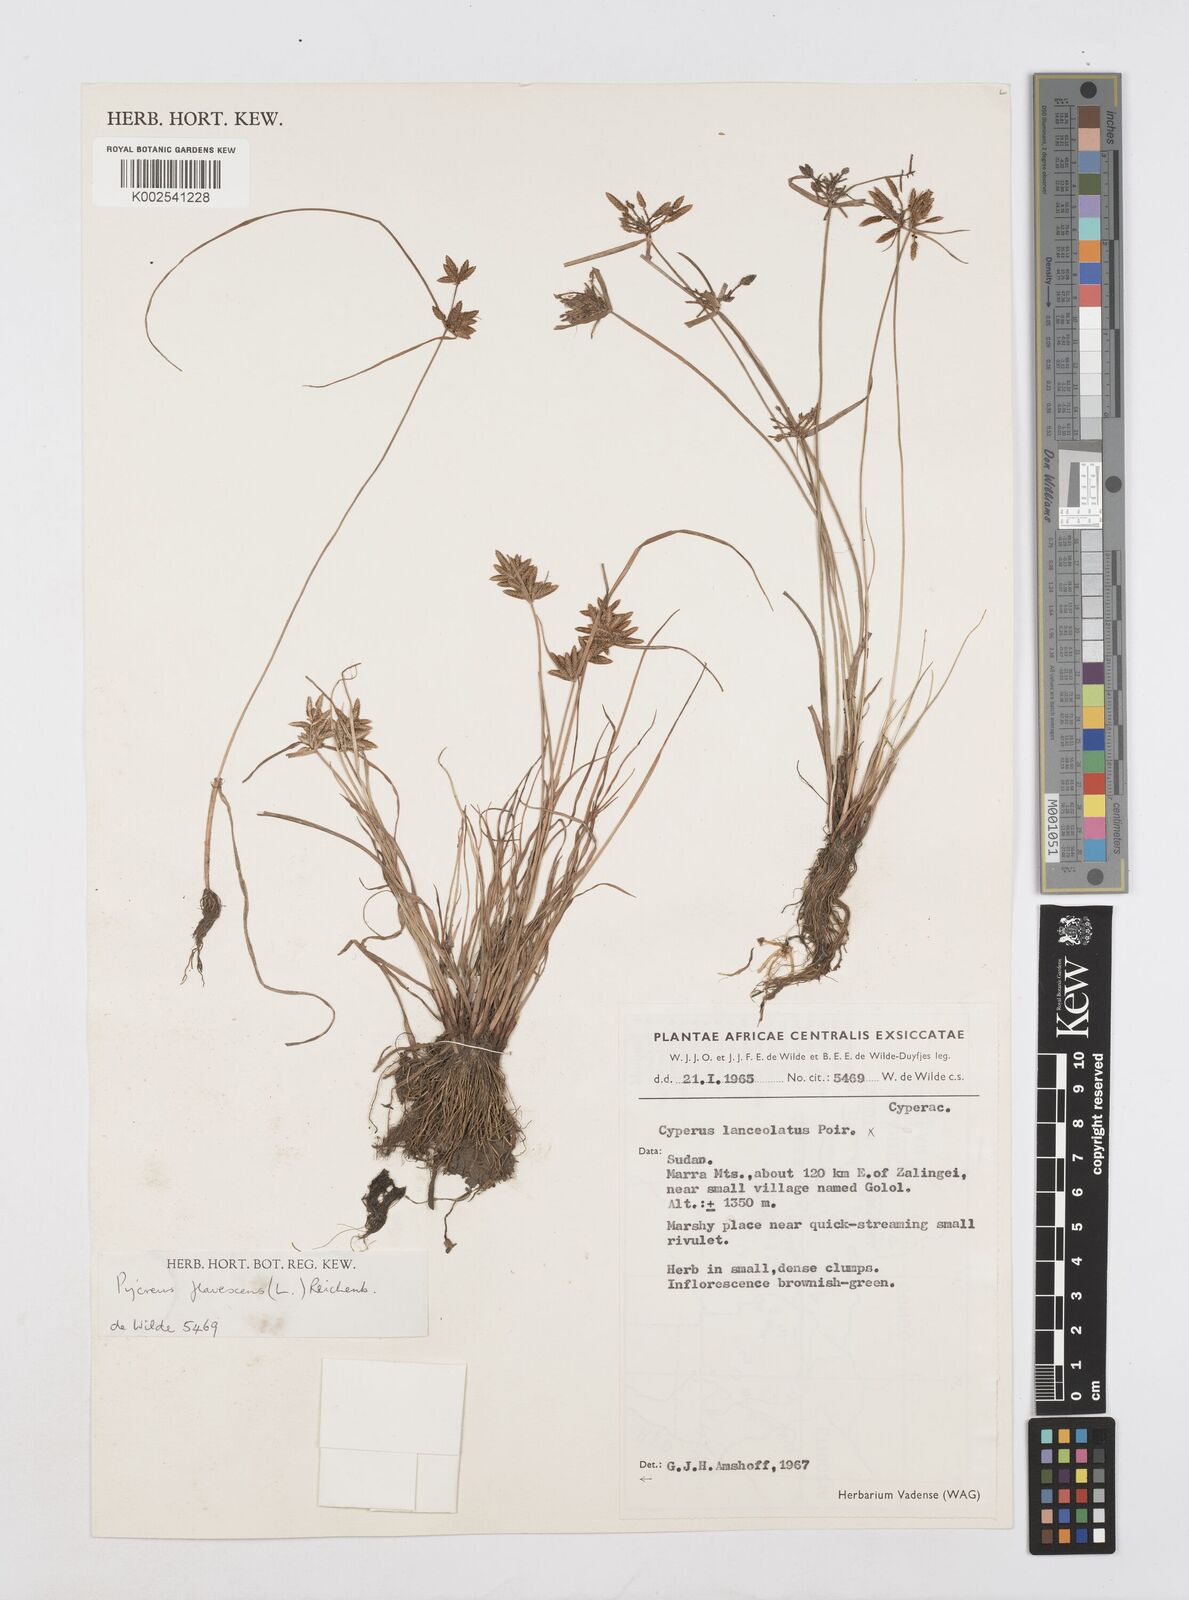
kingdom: Plantae
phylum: Tracheophyta
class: Liliopsida
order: Poales
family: Cyperaceae
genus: Cyperus
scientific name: Cyperus flavescens
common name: Yellow galingale
